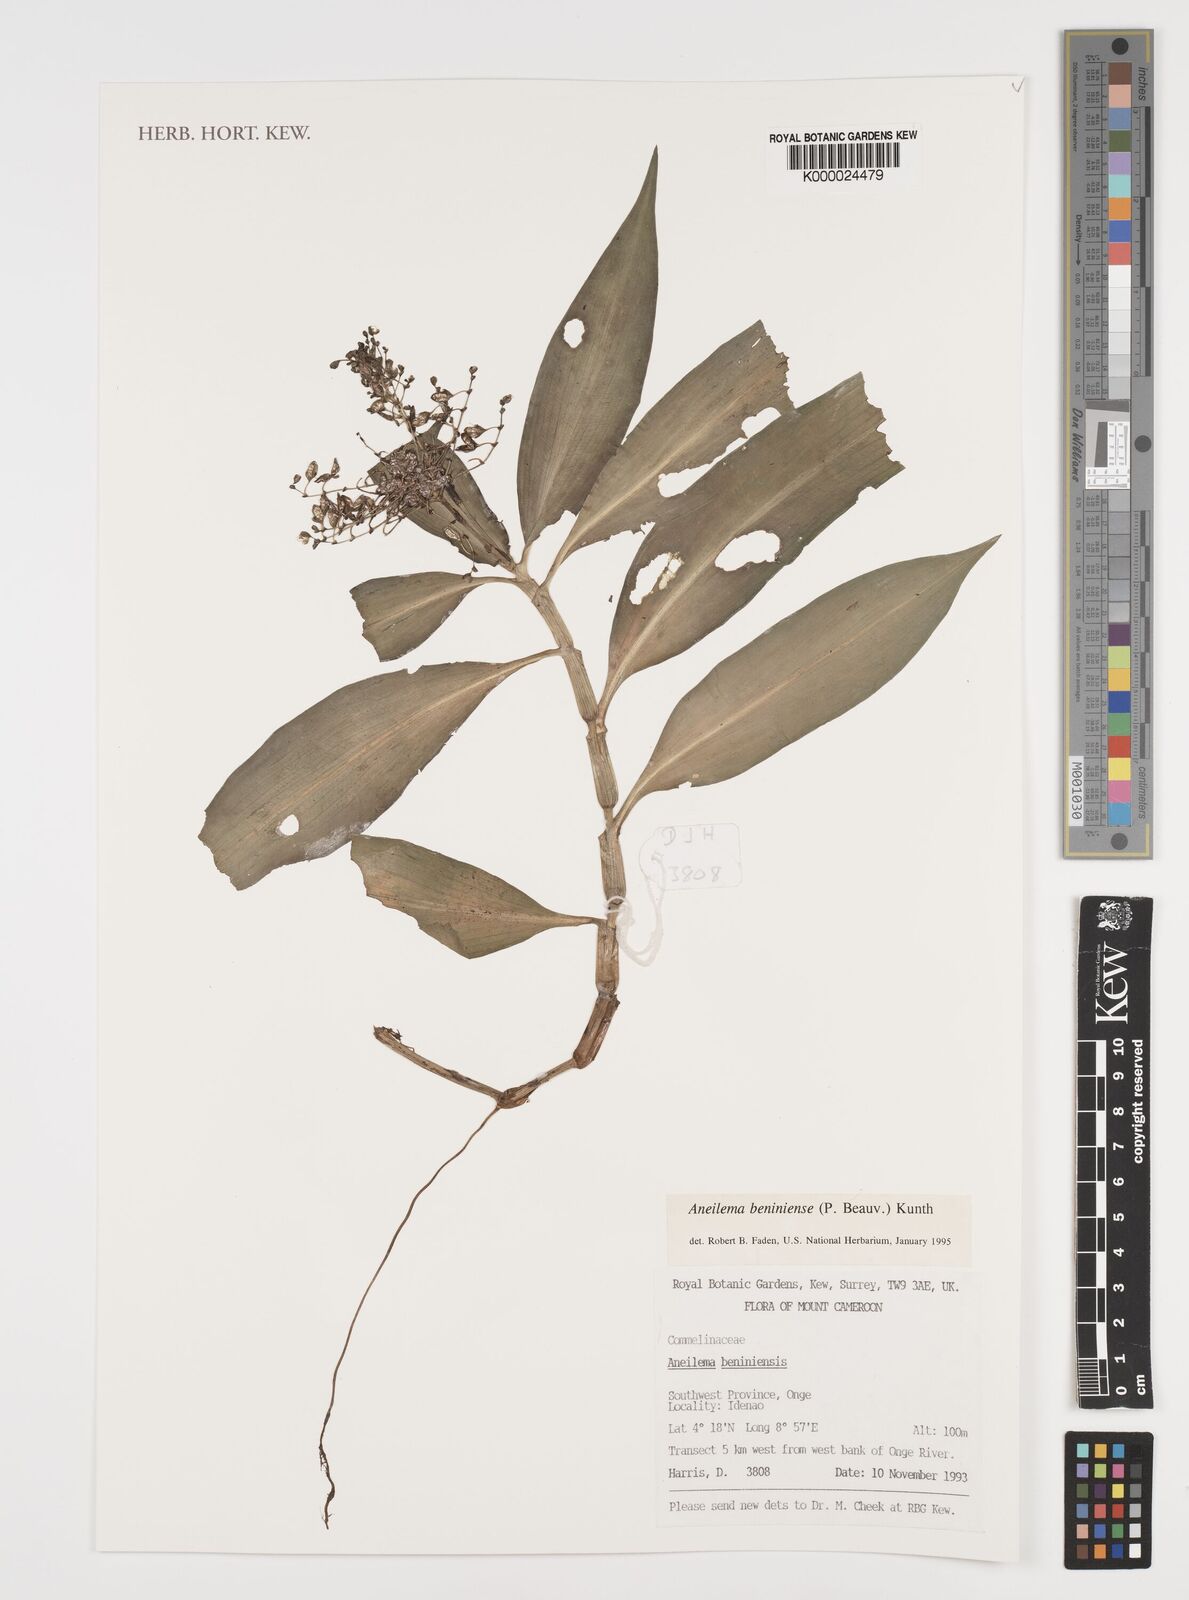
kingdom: Plantae
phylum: Tracheophyta
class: Liliopsida
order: Commelinales
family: Commelinaceae
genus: Aneilema
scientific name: Aneilema beniniense
